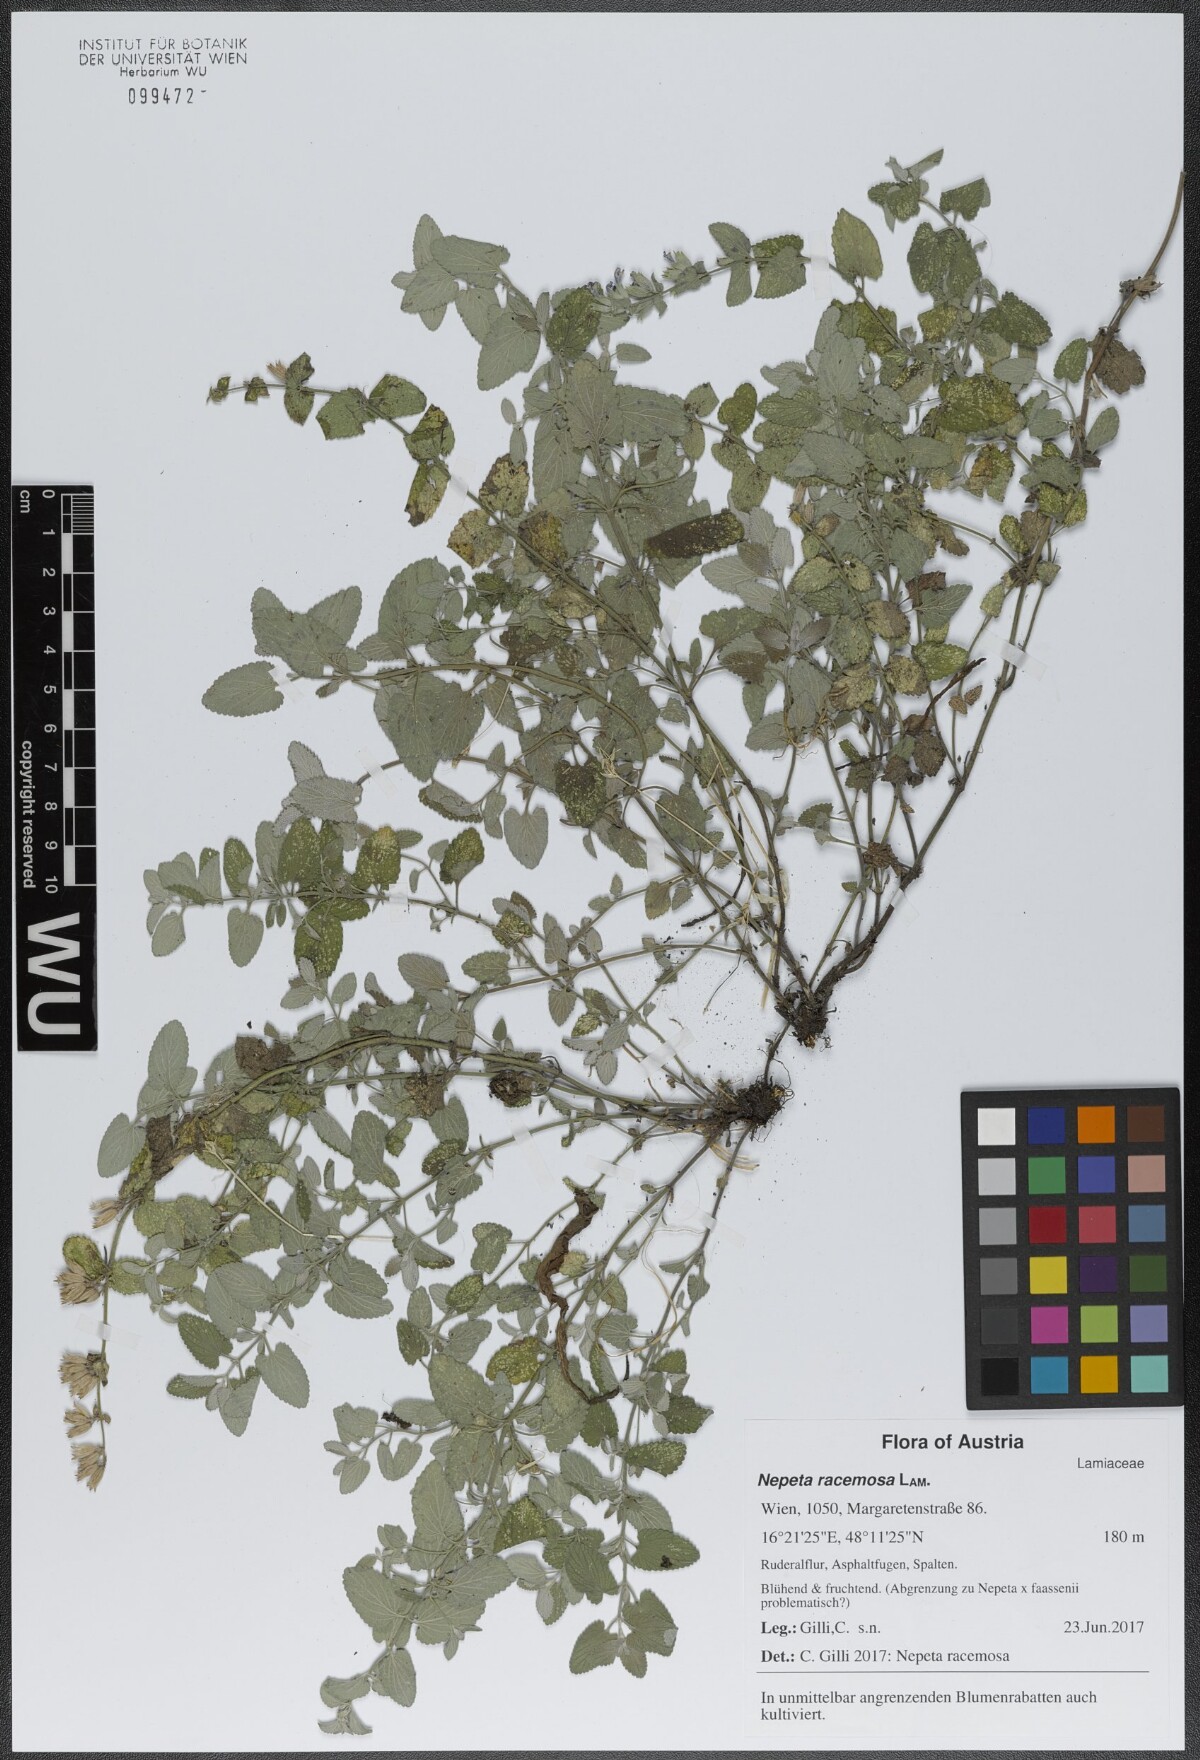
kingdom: Plantae
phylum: Tracheophyta
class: Magnoliopsida
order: Lamiales
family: Lamiaceae
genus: Nepeta
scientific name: Nepeta racemosa
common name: Raceme catnip
